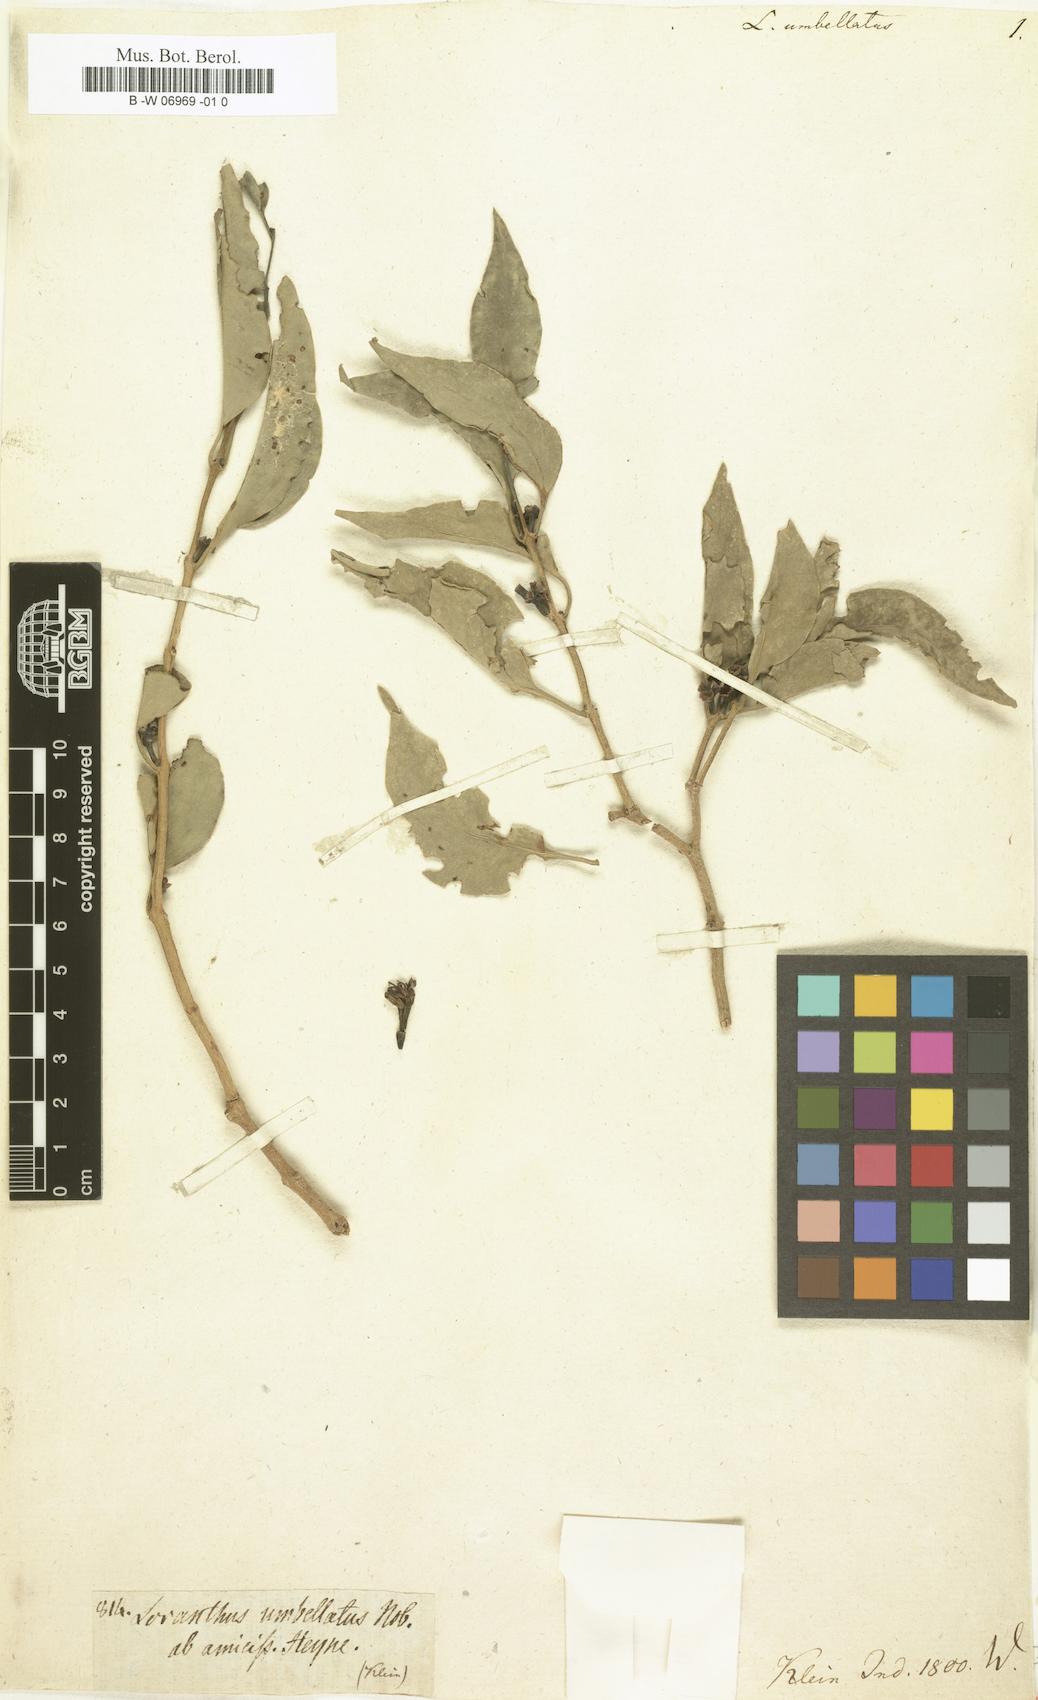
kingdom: Plantae
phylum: Tracheophyta
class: Magnoliopsida
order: Santalales
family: Loranthaceae
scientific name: Loranthaceae
